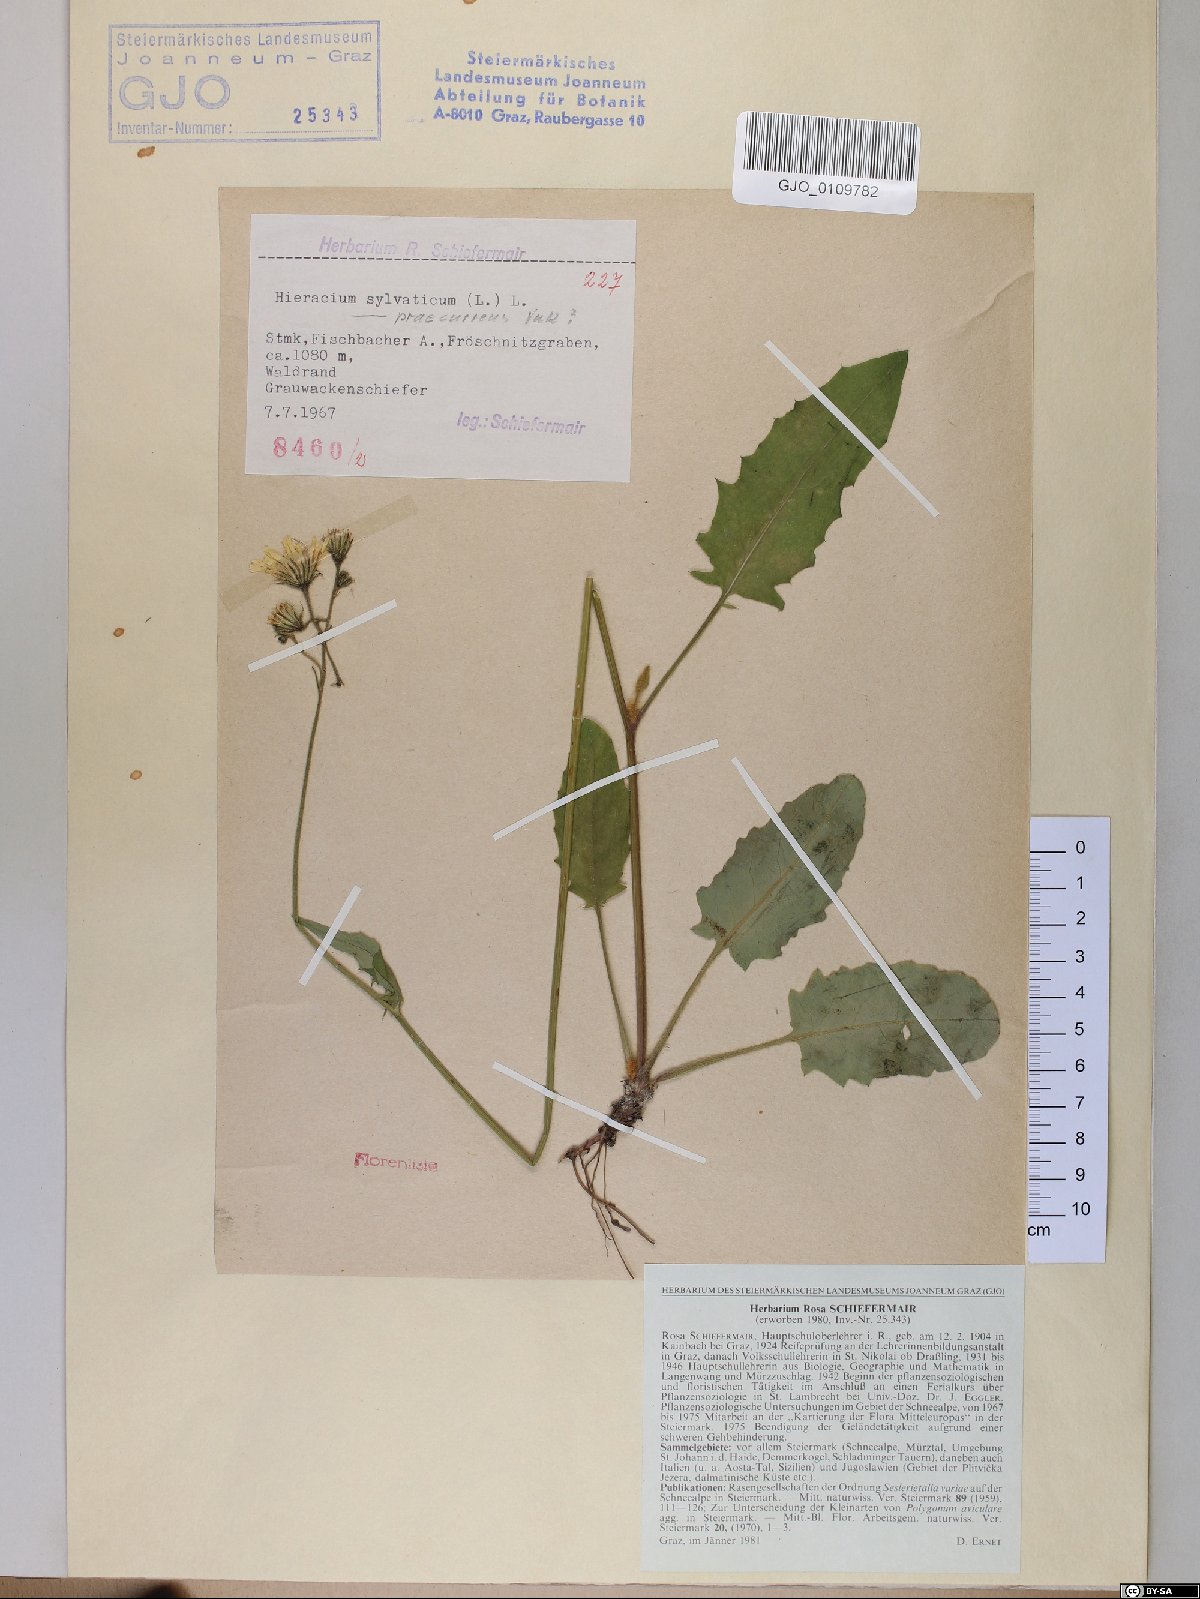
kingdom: Plantae
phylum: Tracheophyta
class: Magnoliopsida
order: Asterales
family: Asteraceae
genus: Hieracium
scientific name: Hieracium rotundatum
